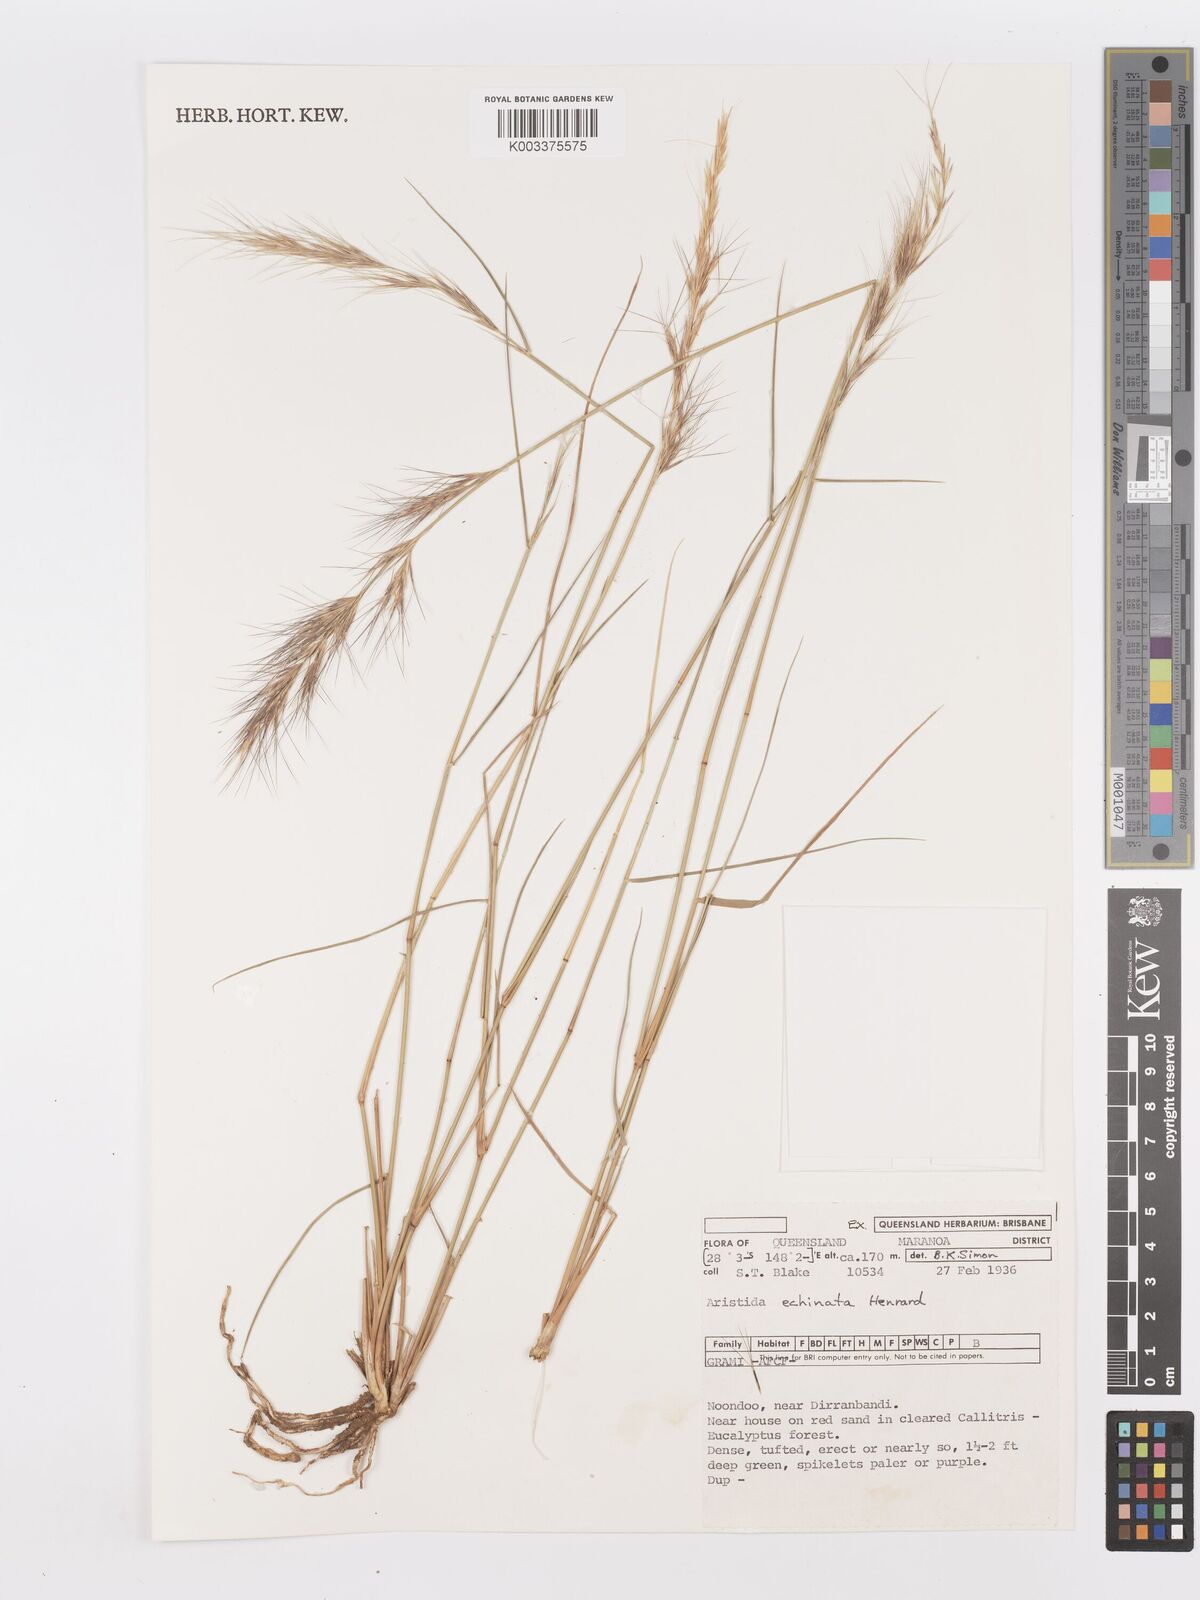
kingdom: Plantae
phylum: Tracheophyta
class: Liliopsida
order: Poales
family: Poaceae
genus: Aristida
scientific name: Aristida echinata
